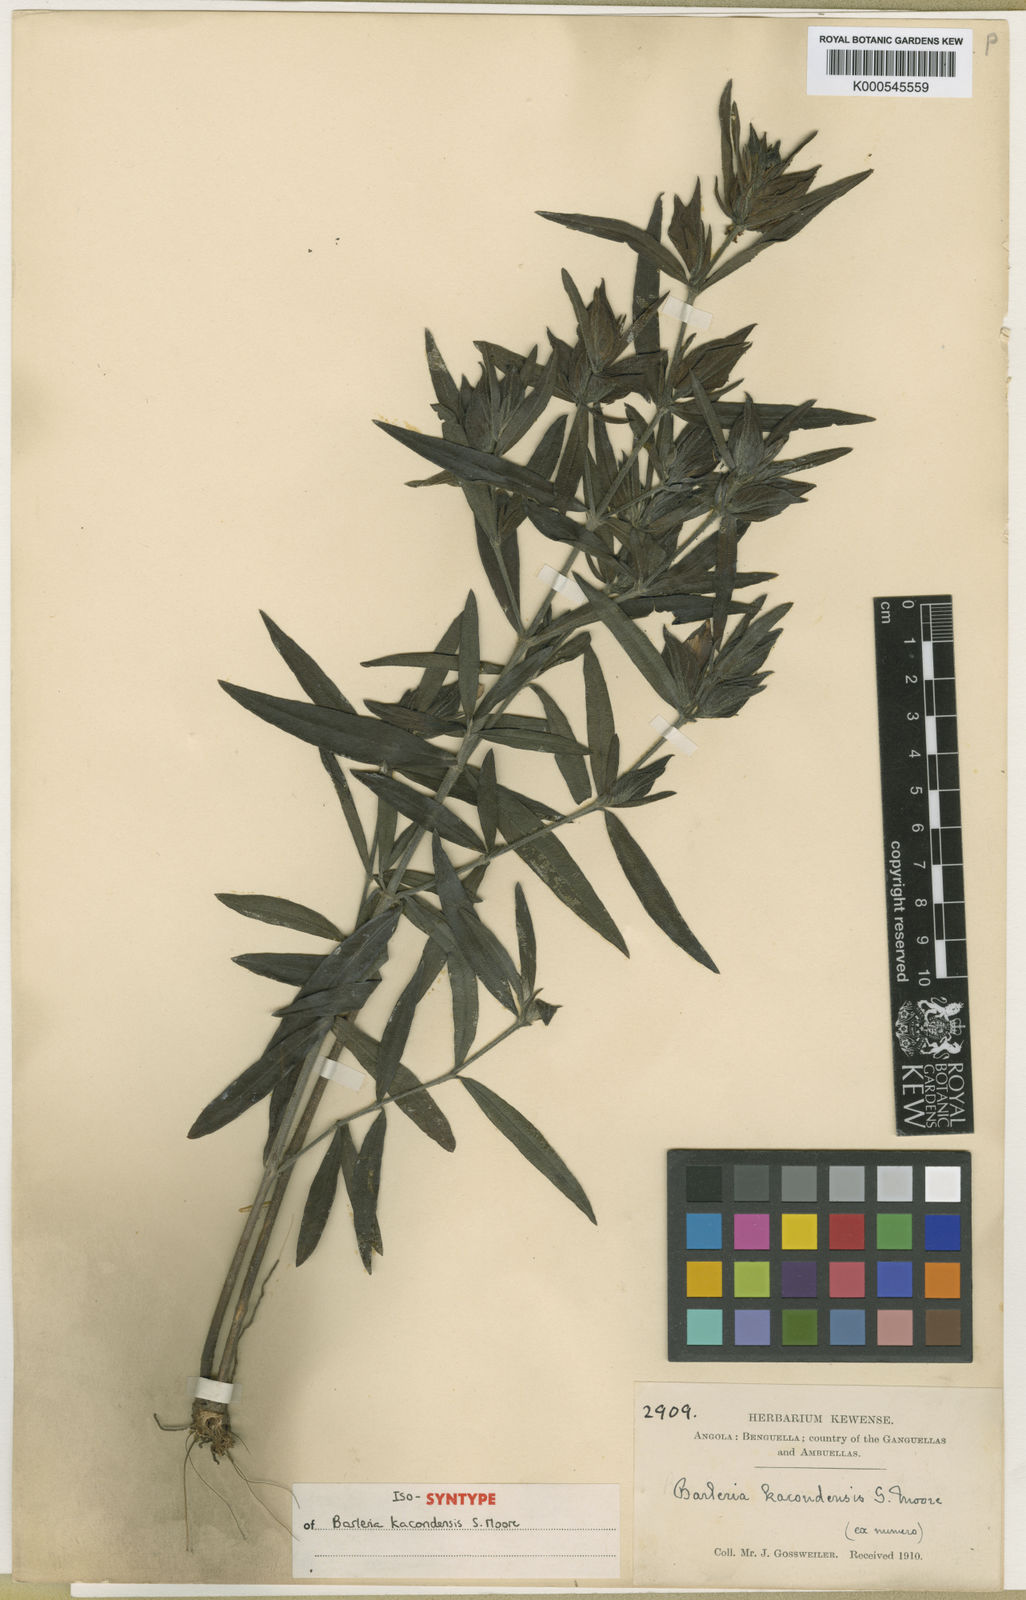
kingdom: Plantae
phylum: Tracheophyta
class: Magnoliopsida
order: Lamiales
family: Acanthaceae
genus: Barleria
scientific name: Barleria kacondensis
